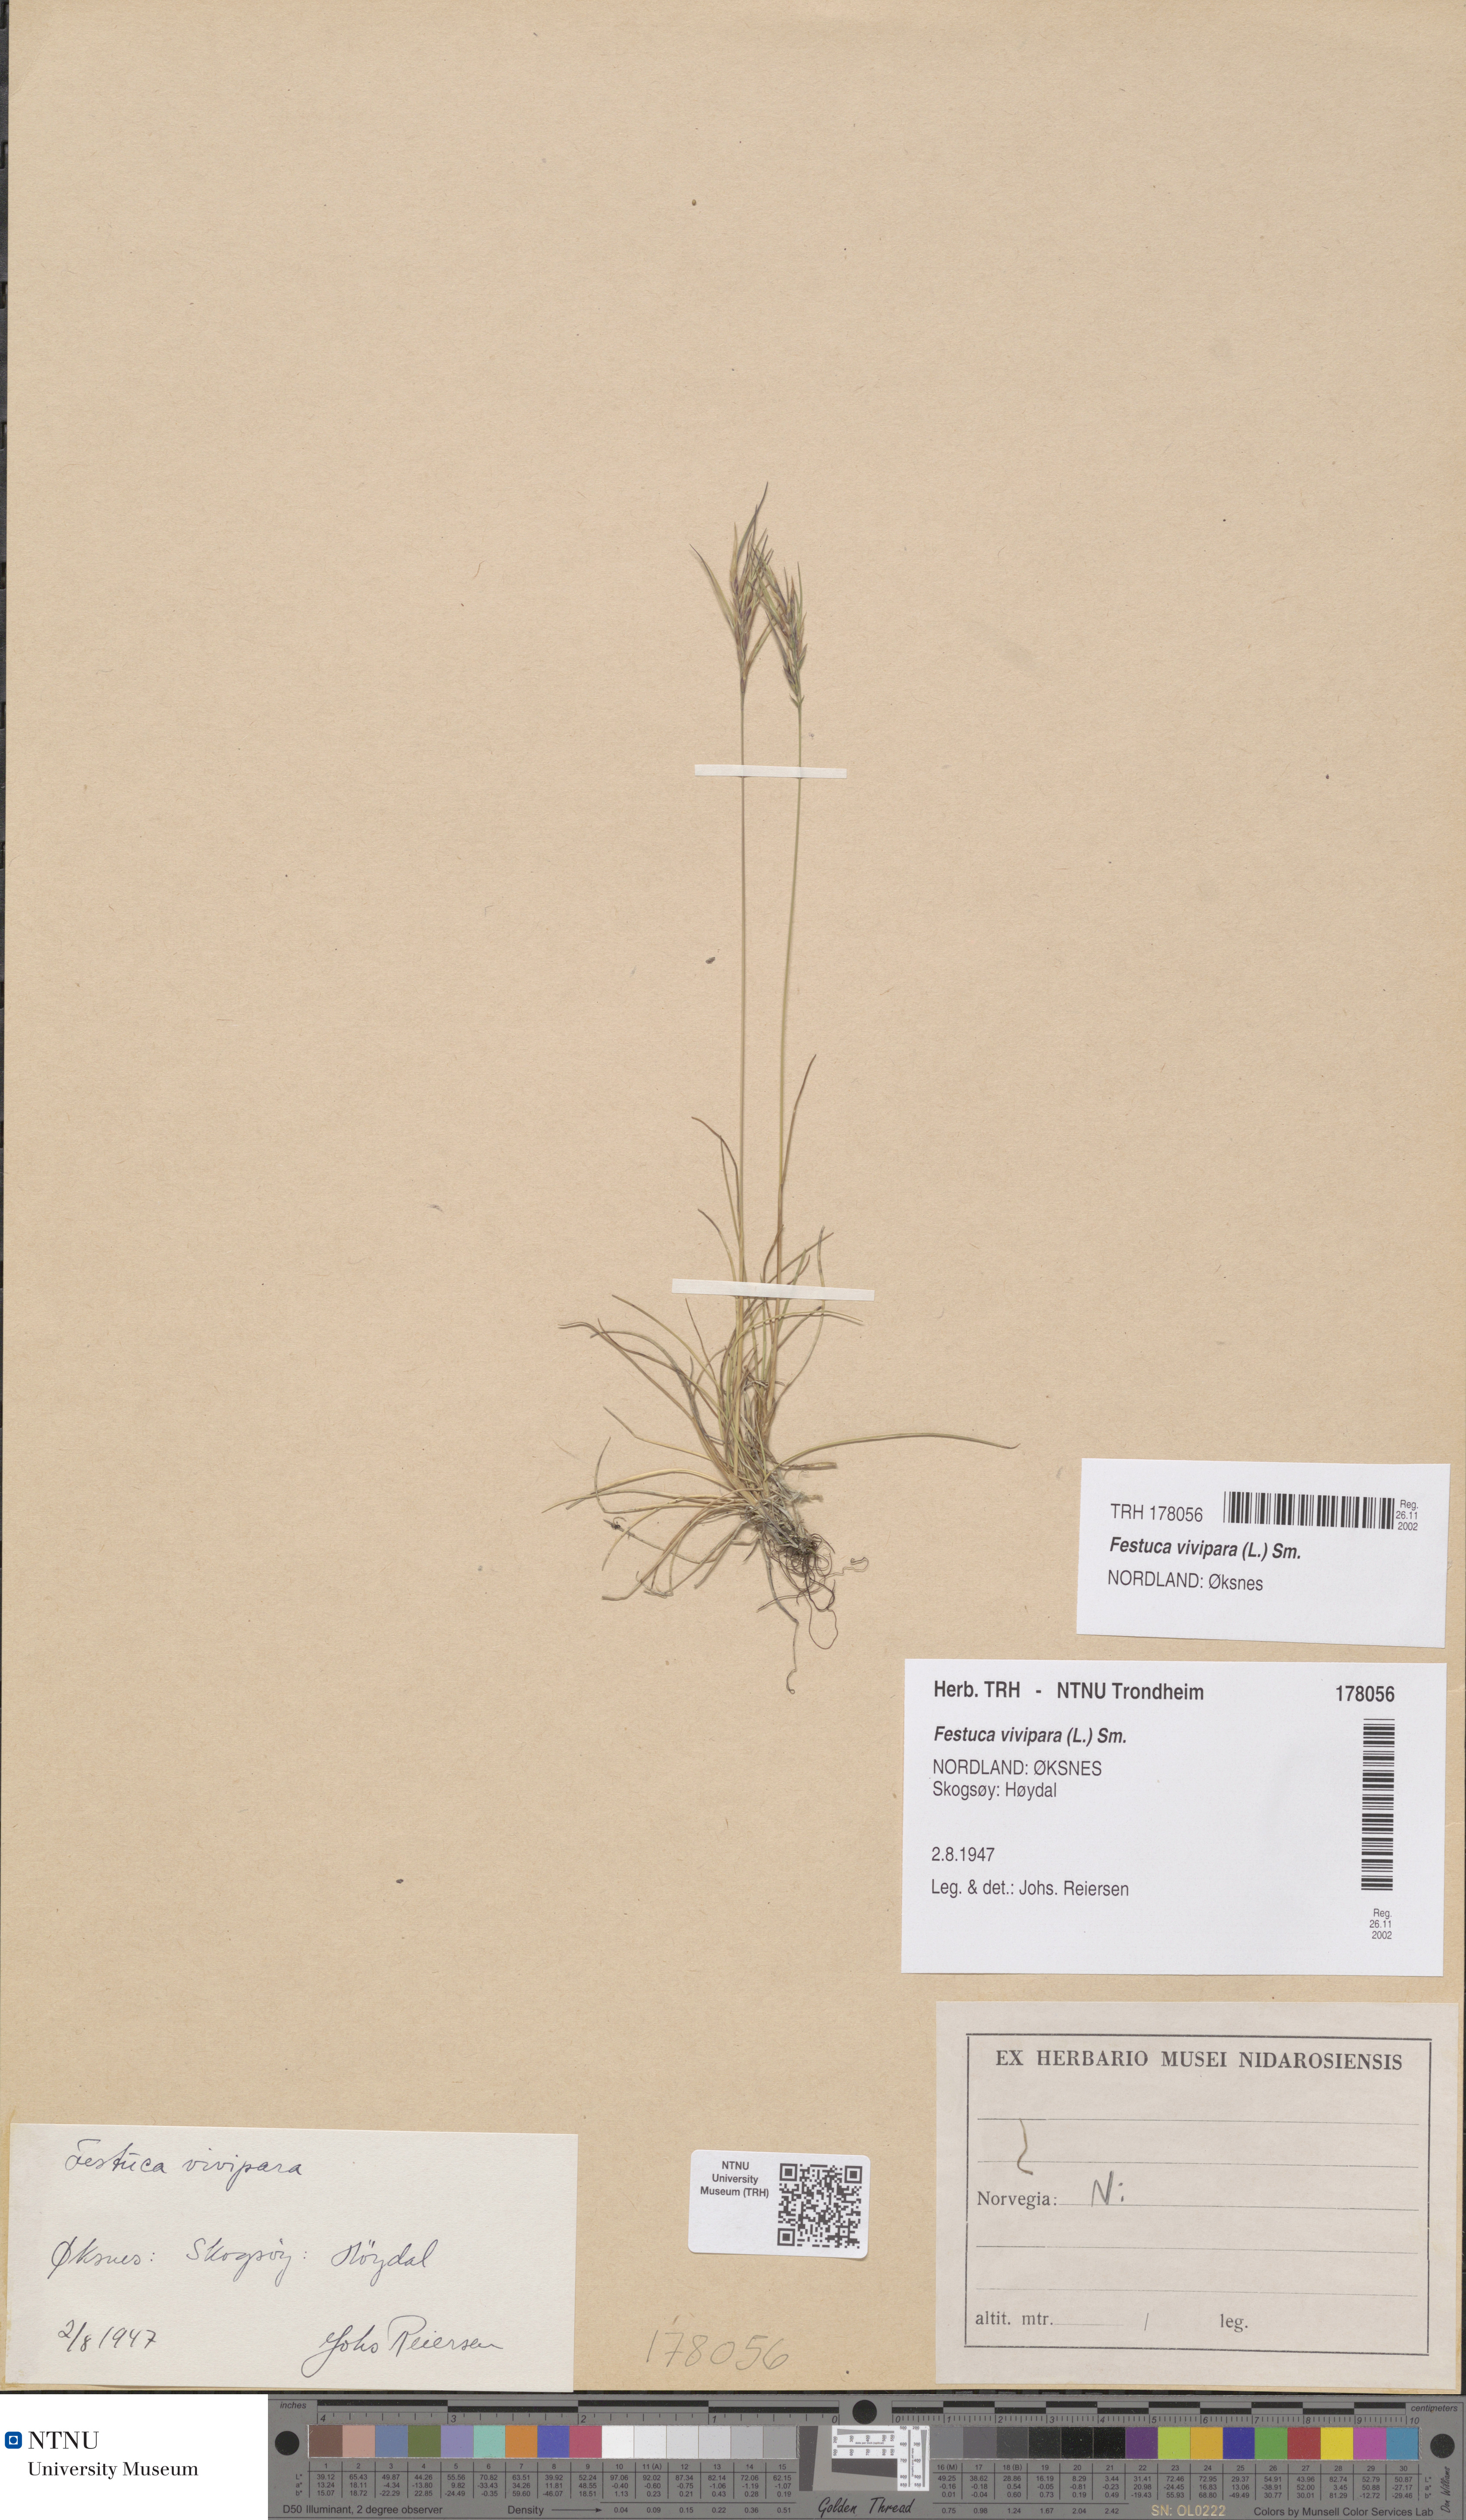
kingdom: Plantae
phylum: Tracheophyta
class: Liliopsida
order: Poales
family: Poaceae
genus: Festuca
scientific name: Festuca vivipara
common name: Viviparous sheep's-fescue
